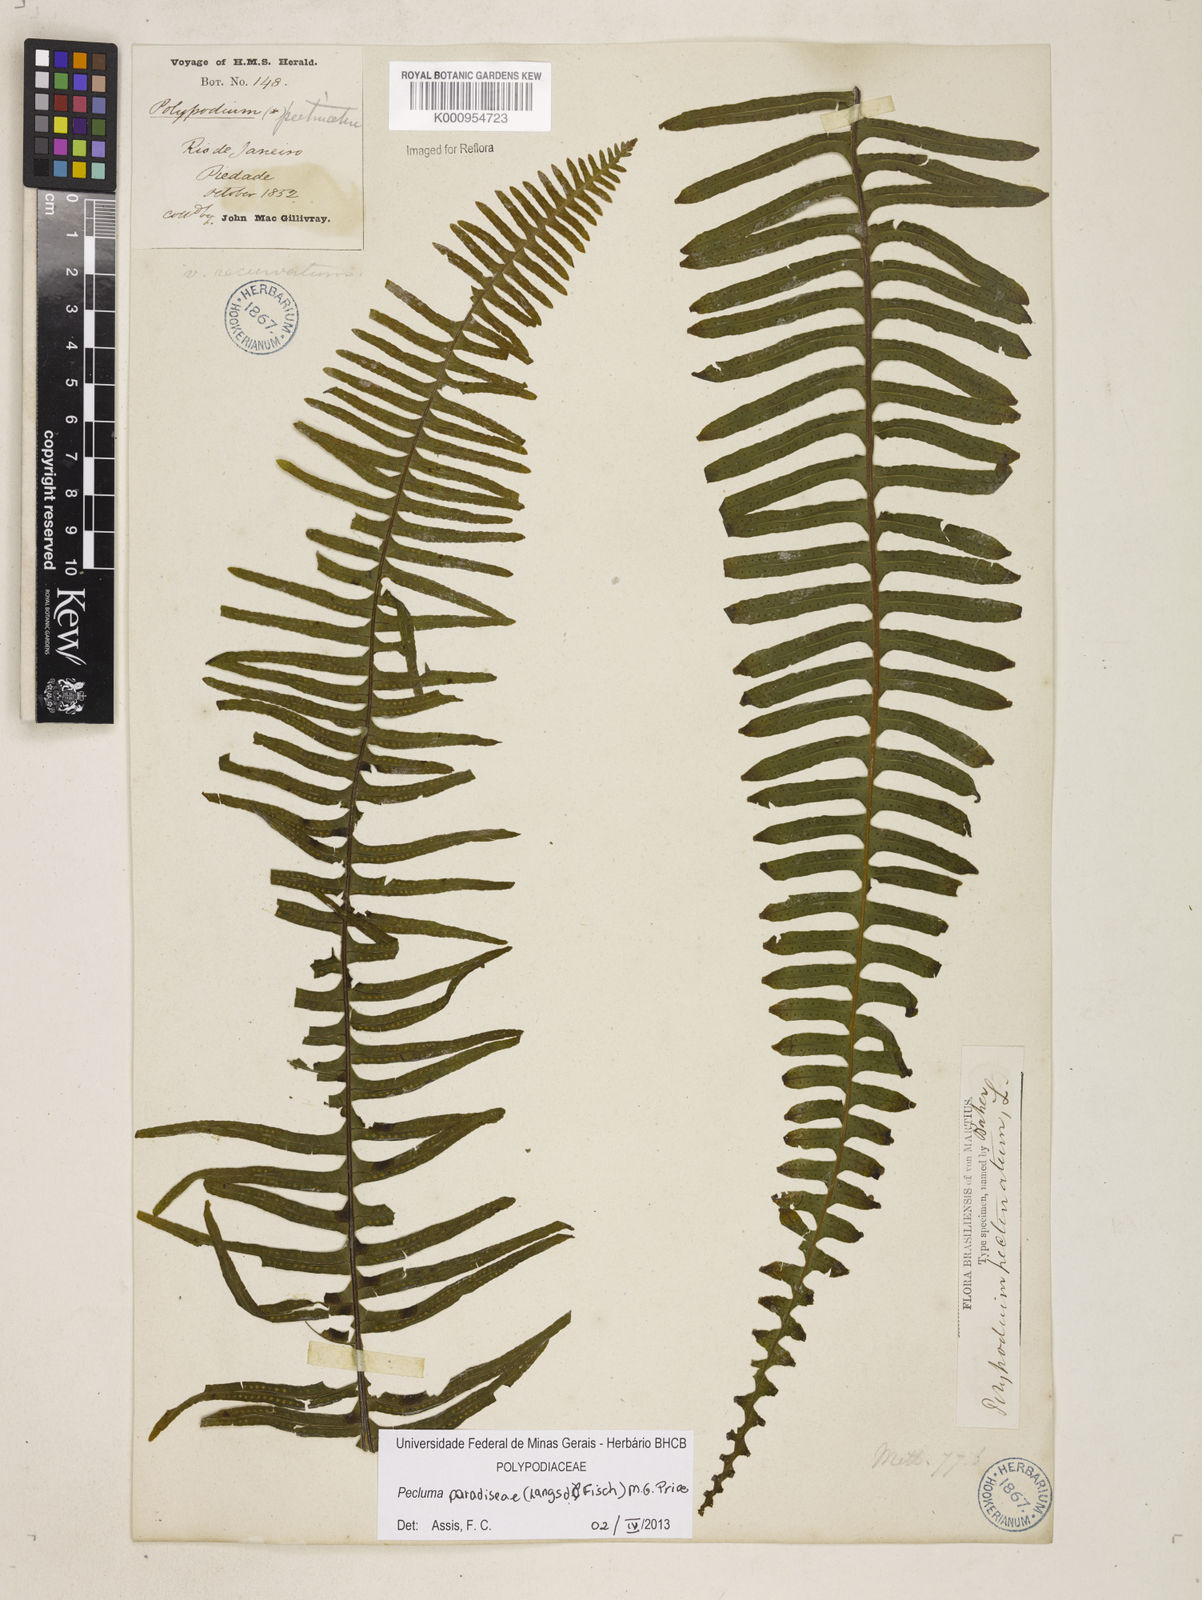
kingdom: Plantae
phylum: Tracheophyta
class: Polypodiopsida
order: Polypodiales
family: Polypodiaceae
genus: Pecluma
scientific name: Pecluma paradiseae
